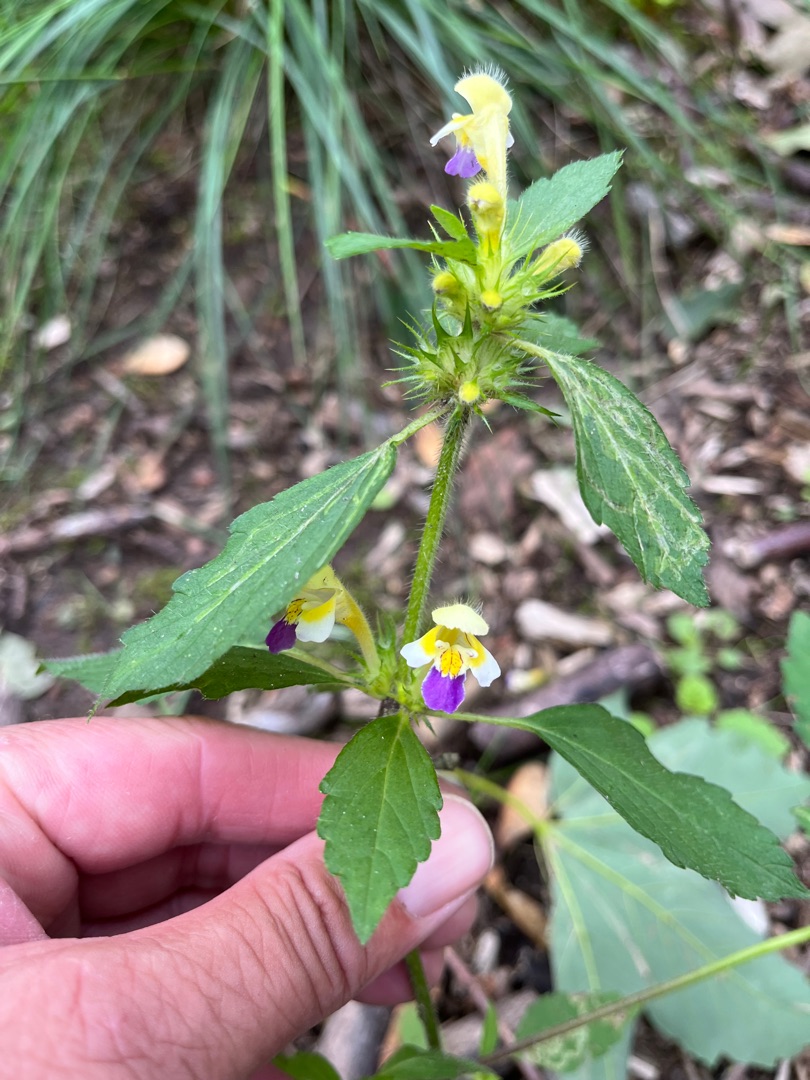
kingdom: Plantae
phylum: Tracheophyta
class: Magnoliopsida
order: Lamiales
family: Lamiaceae
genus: Galeopsis
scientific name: Galeopsis speciosa
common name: Hamp-hanekro
